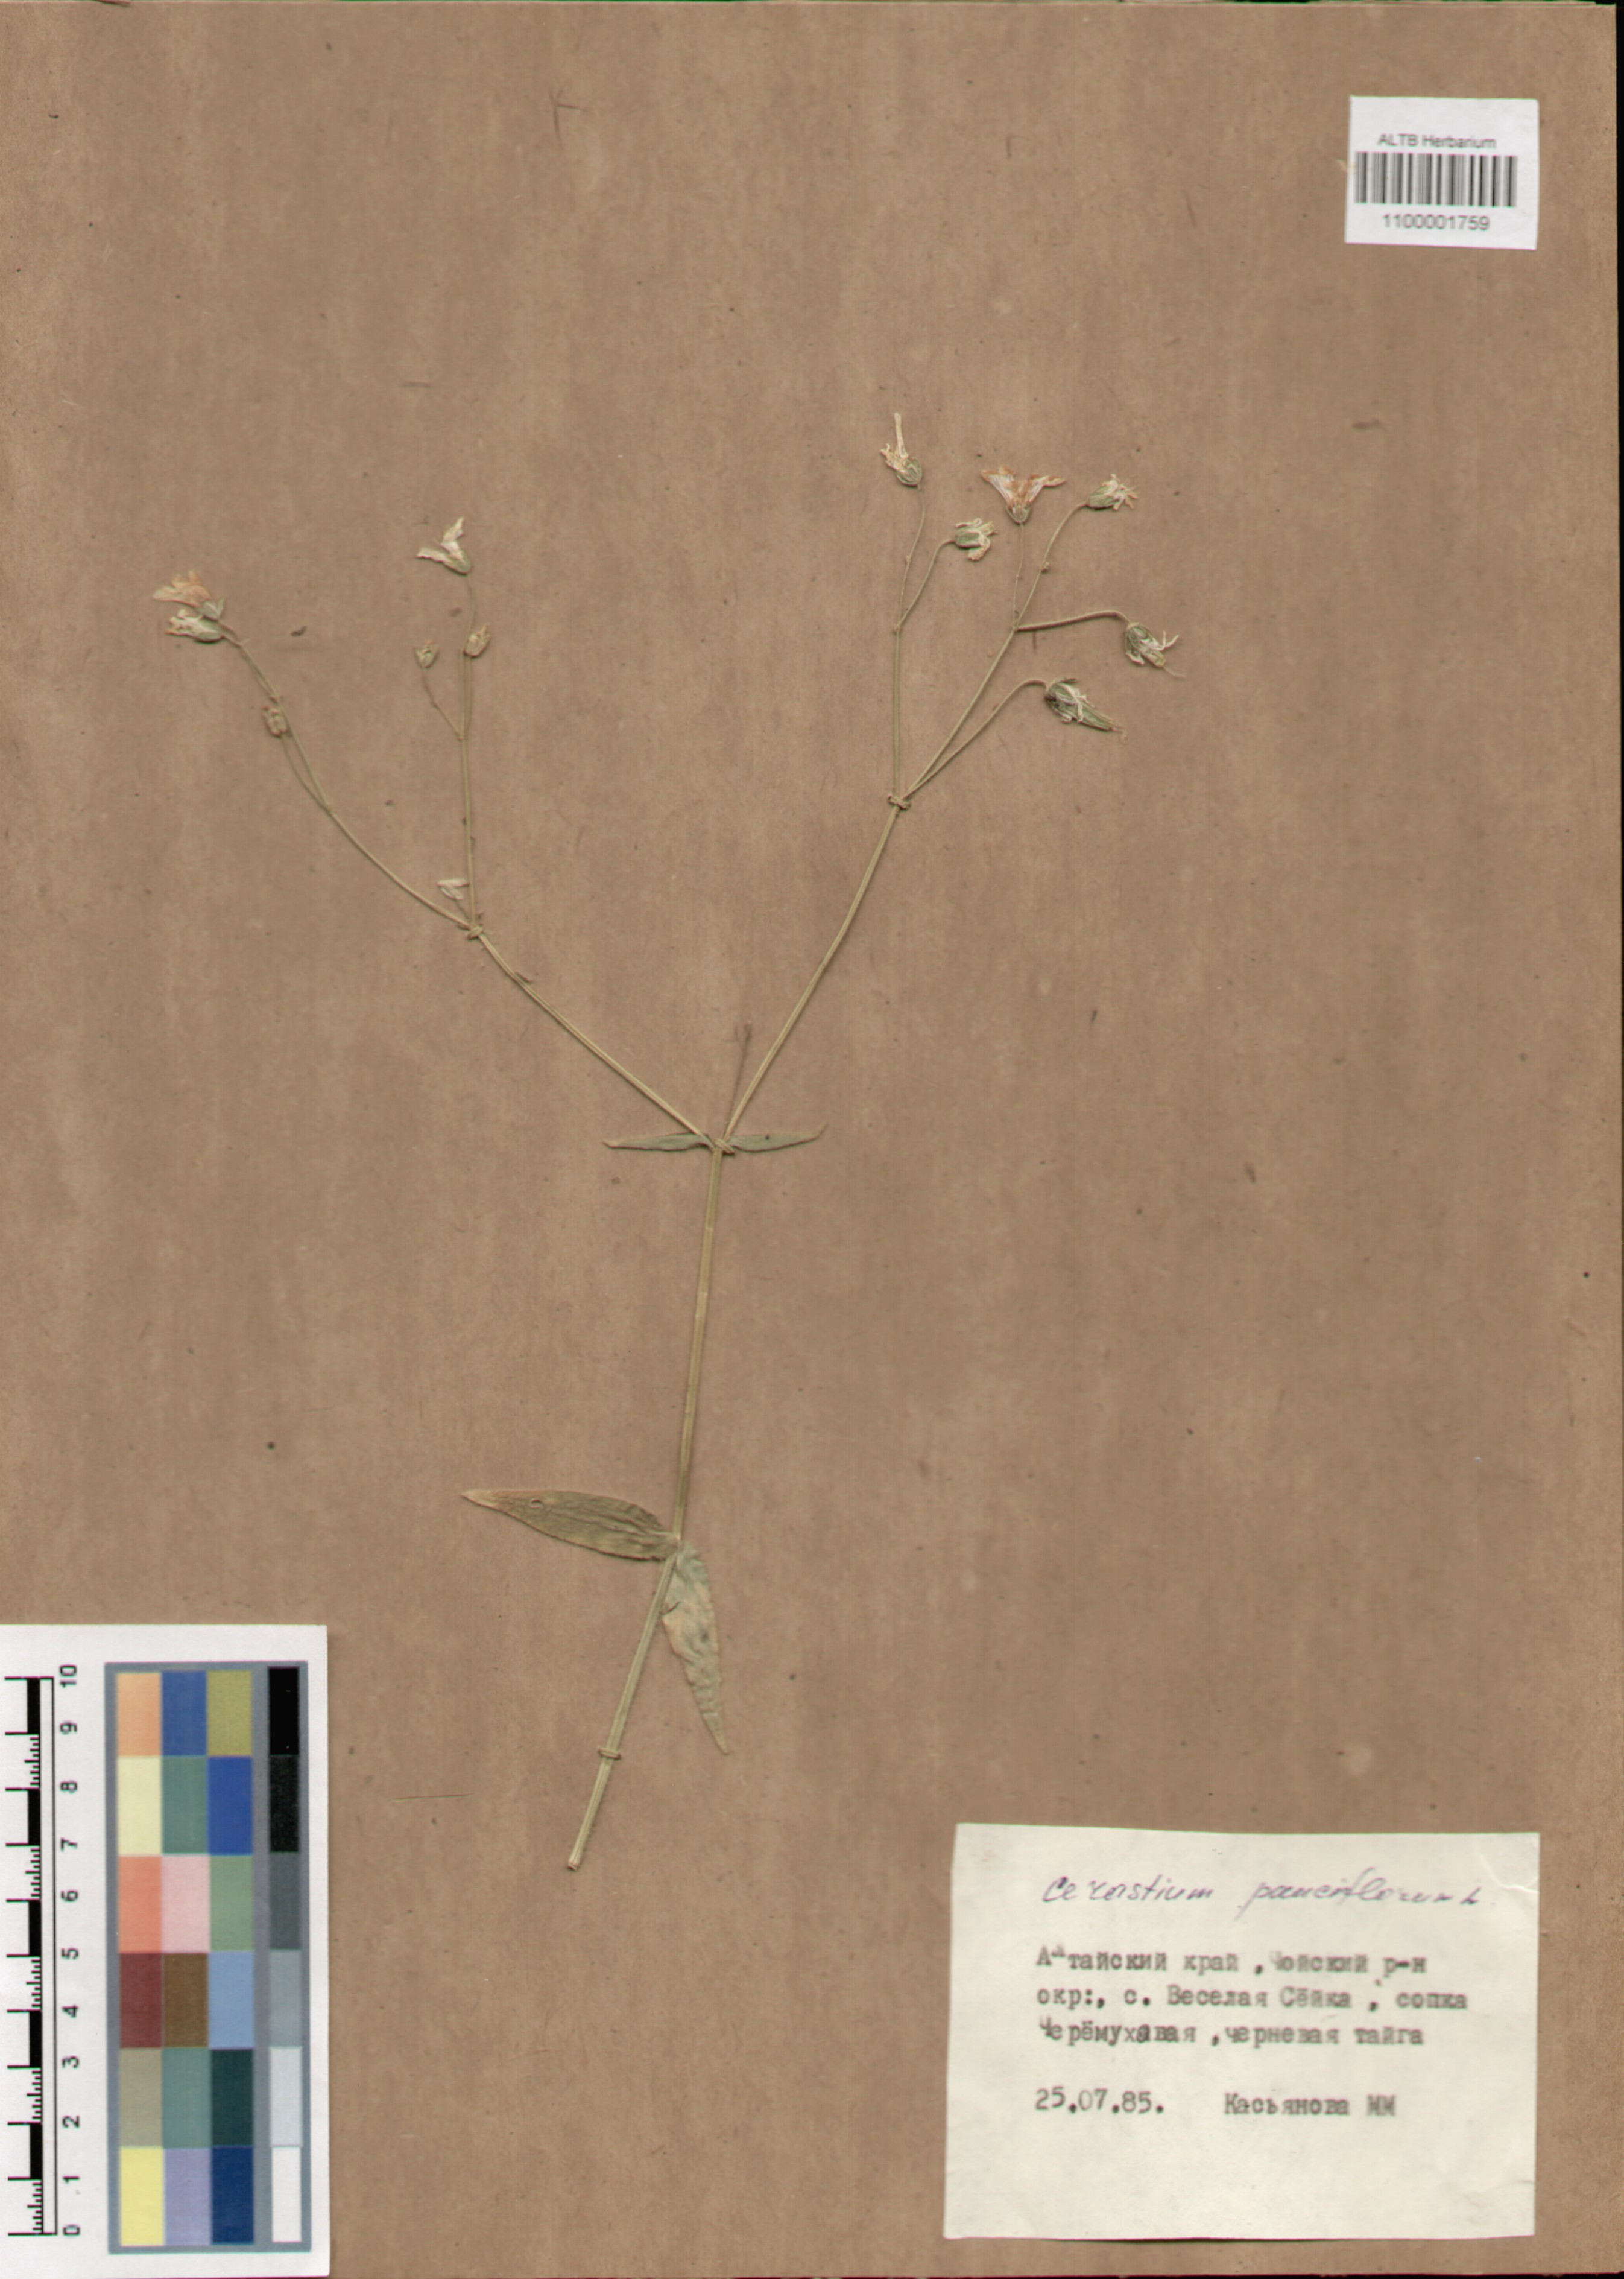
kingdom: Plantae
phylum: Tracheophyta
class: Magnoliopsida
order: Caryophyllales
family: Caryophyllaceae
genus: Cerastium
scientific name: Cerastium pauciflorum
